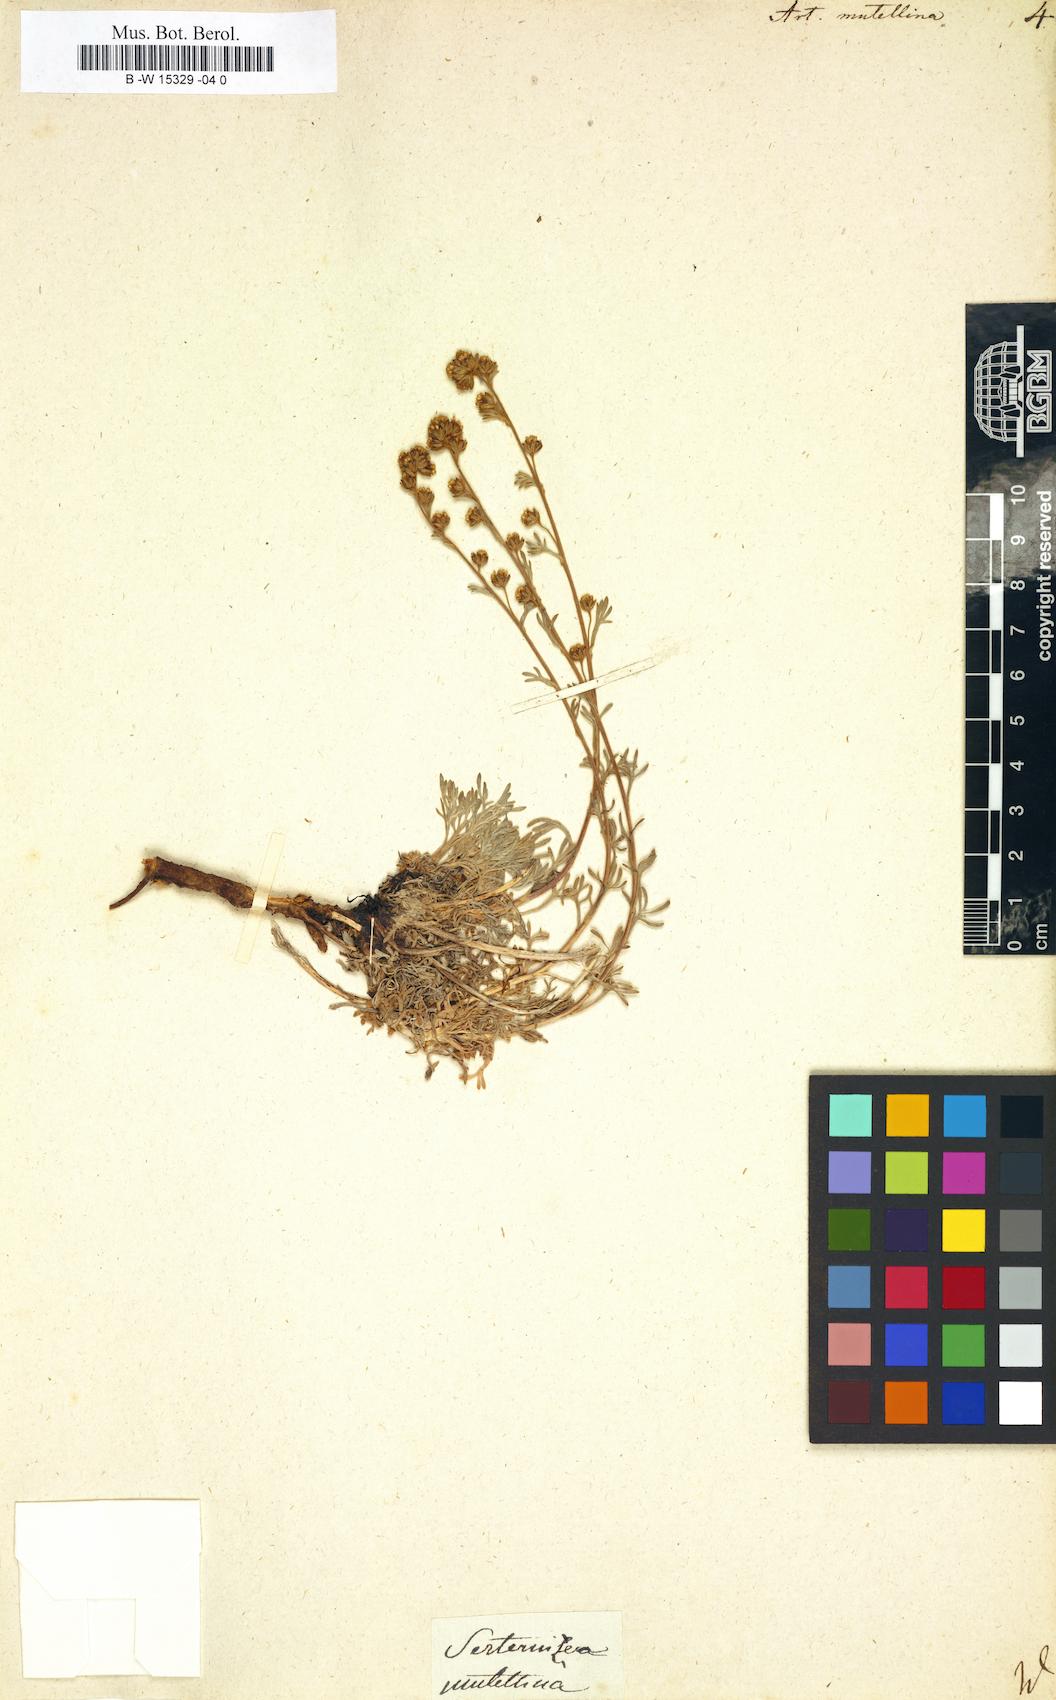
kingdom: Plantae
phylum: Tracheophyta
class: Magnoliopsida
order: Asterales
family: Asteraceae
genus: Artemisia
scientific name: Artemisia mutellina
